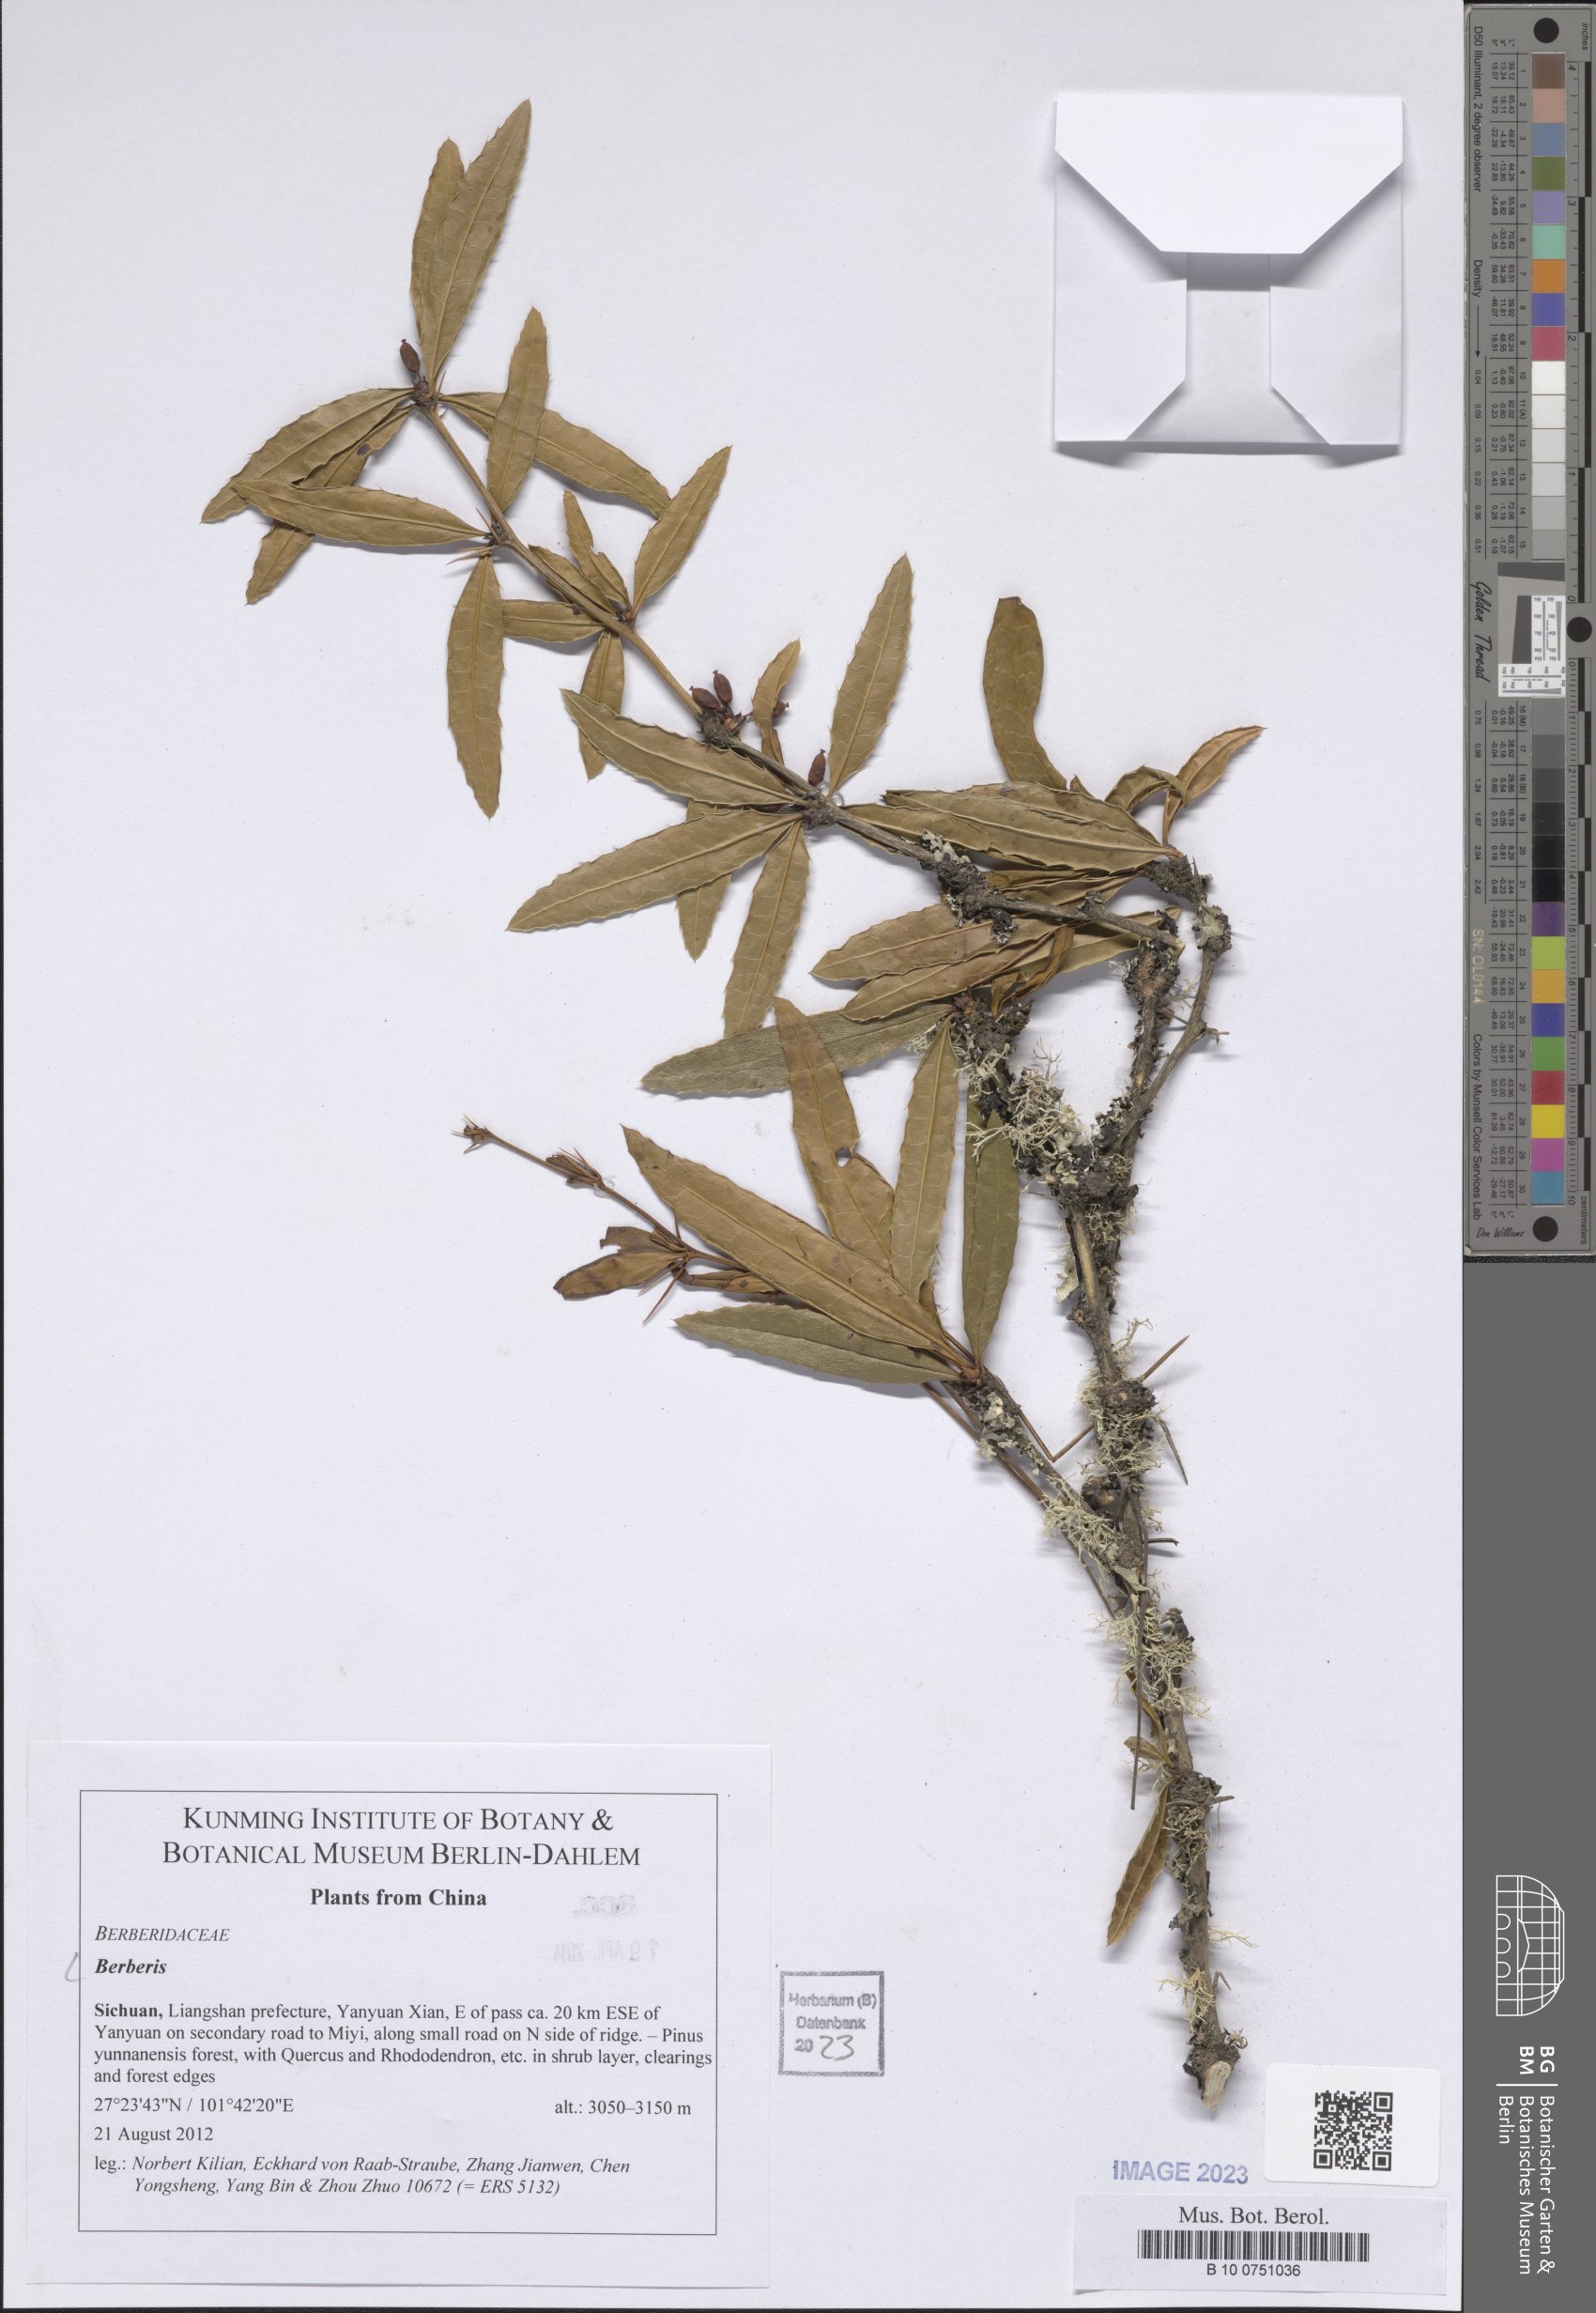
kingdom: Plantae
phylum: Tracheophyta
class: Magnoliopsida
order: Ranunculales
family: Berberidaceae
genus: Berberis
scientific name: Berberis
